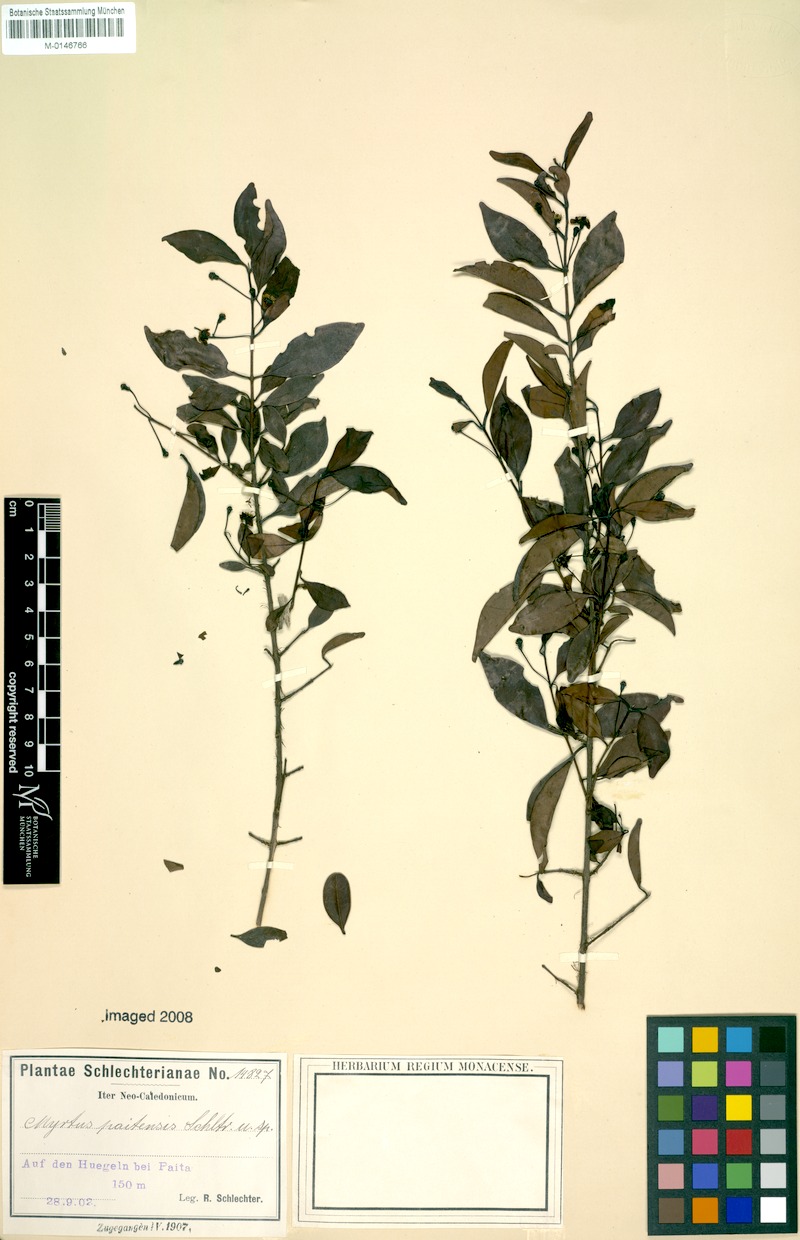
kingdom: Plantae
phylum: Tracheophyta
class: Magnoliopsida
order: Myrtales
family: Myrtaceae
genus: Archirhodomyrtus
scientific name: Archirhodomyrtus paitensis
